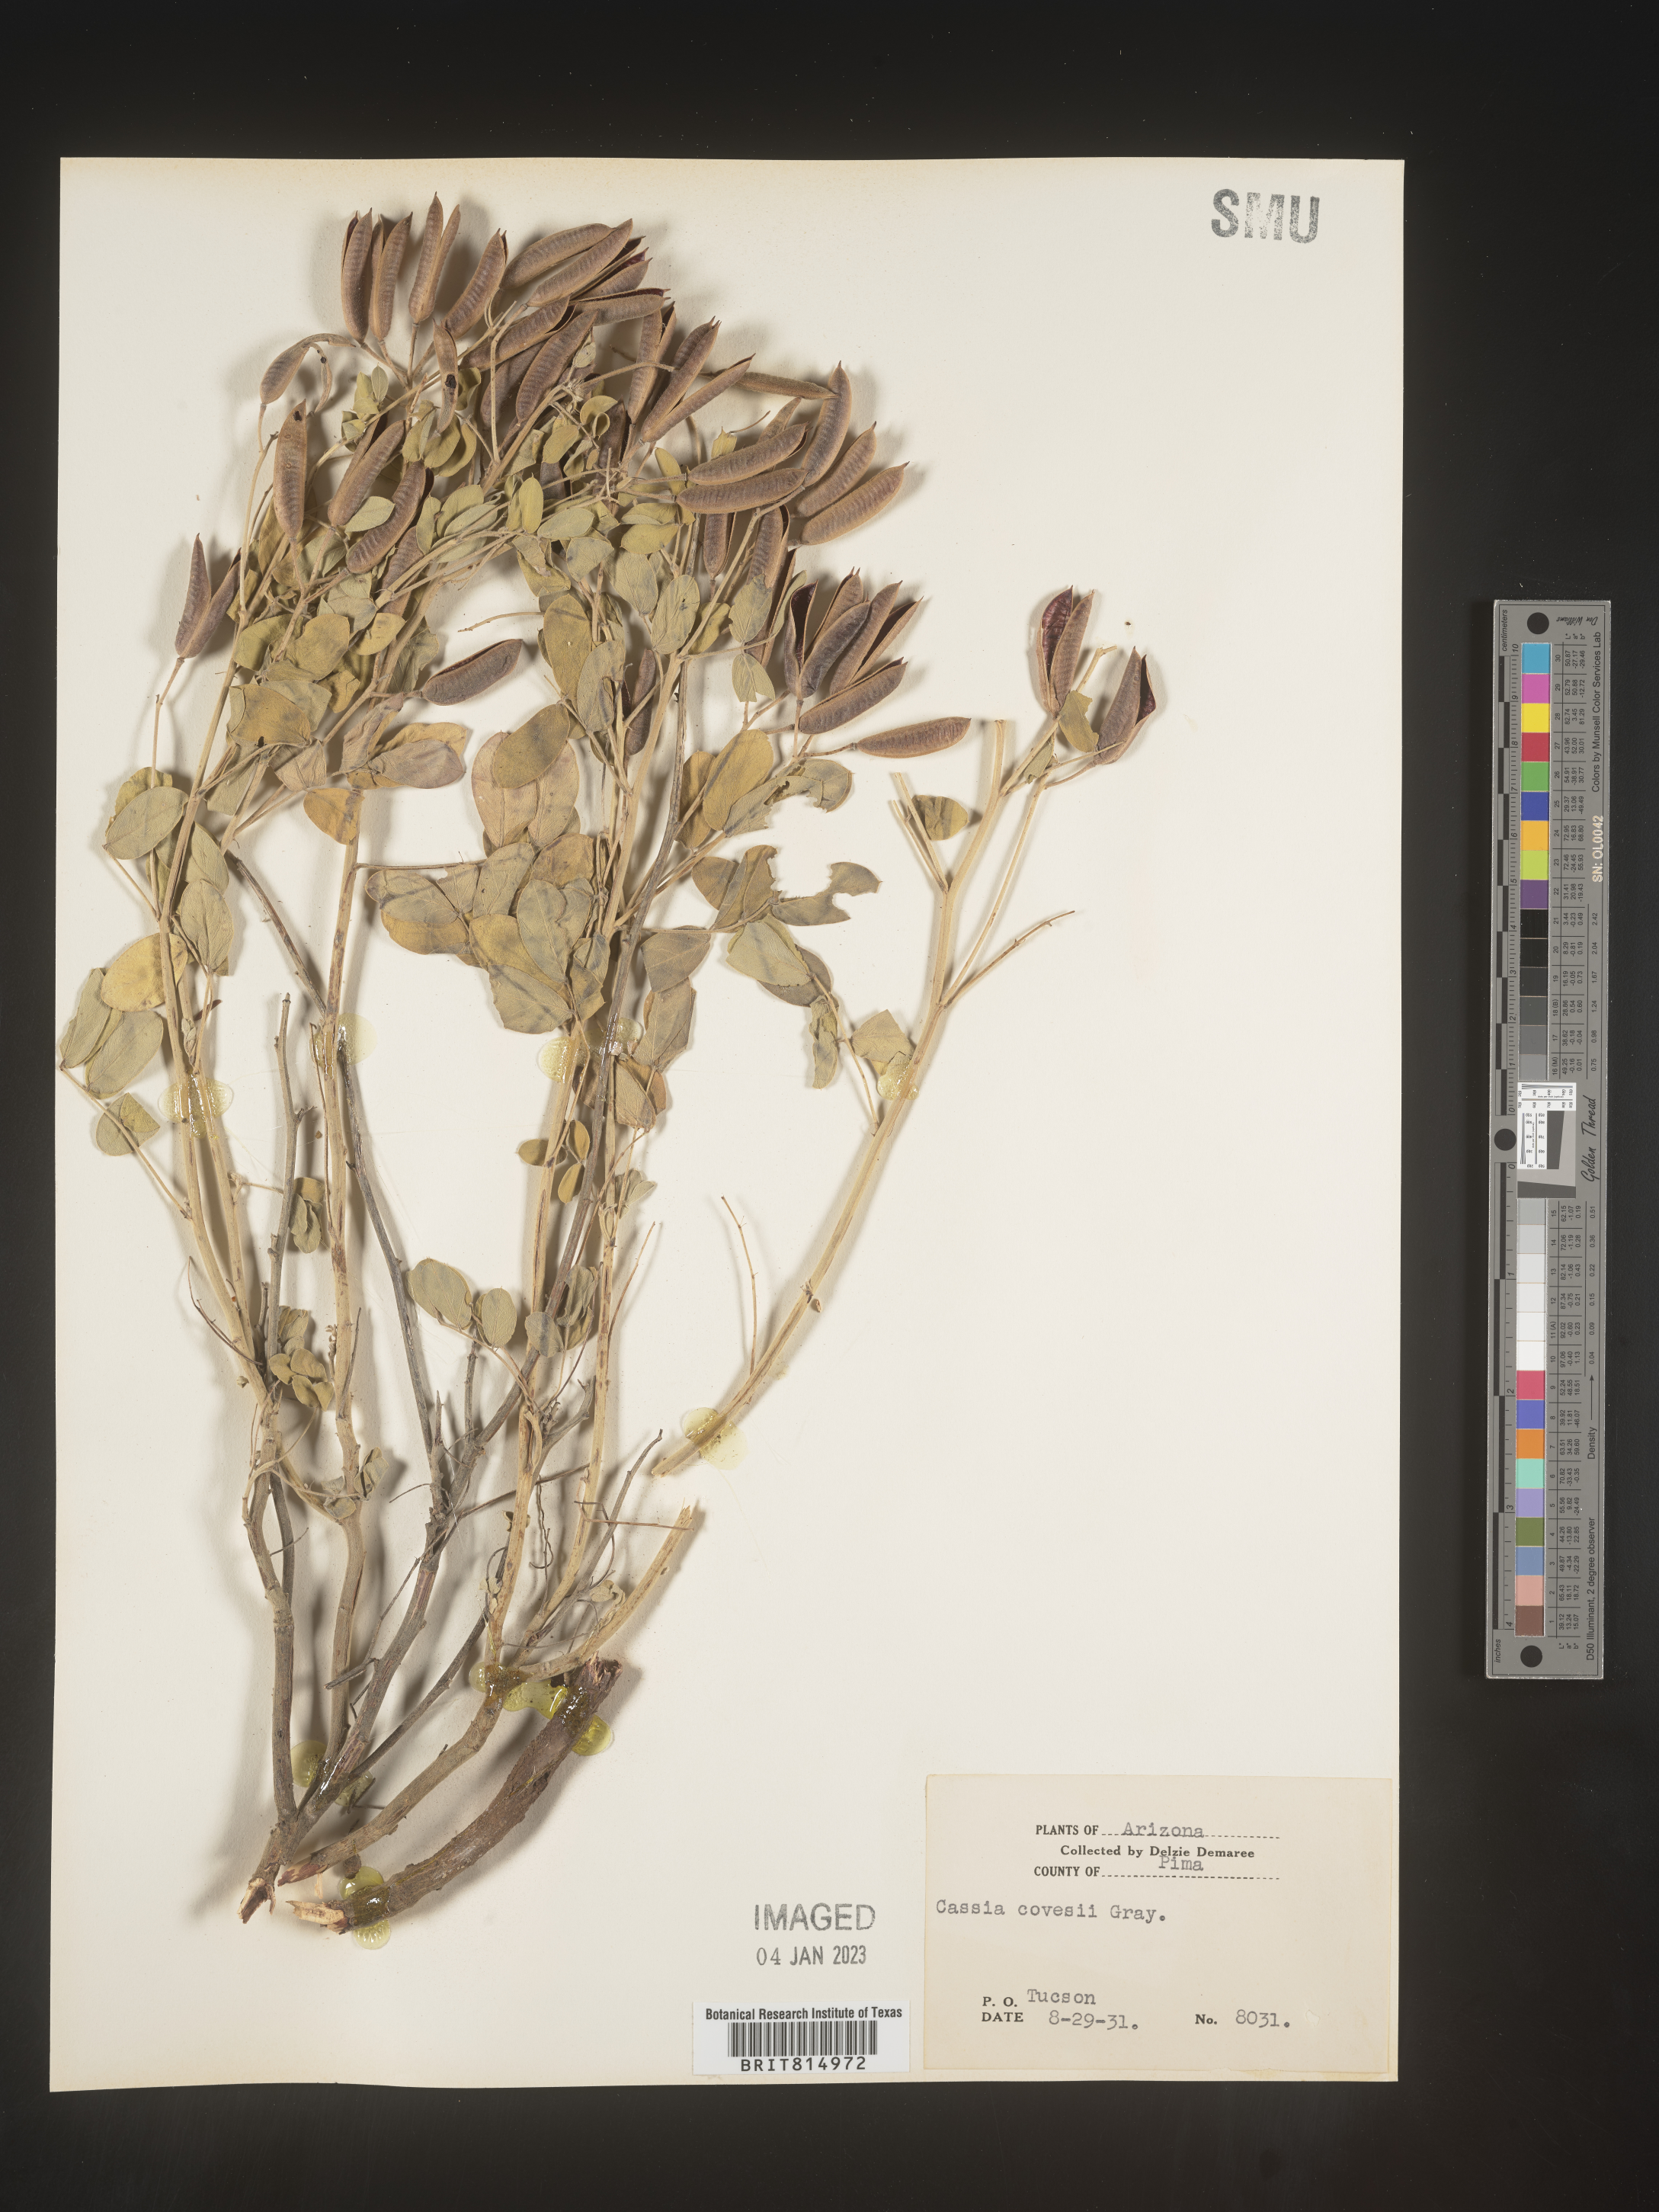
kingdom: Plantae
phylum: Tracheophyta
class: Magnoliopsida
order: Fabales
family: Fabaceae
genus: Cassia
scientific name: Cassia
